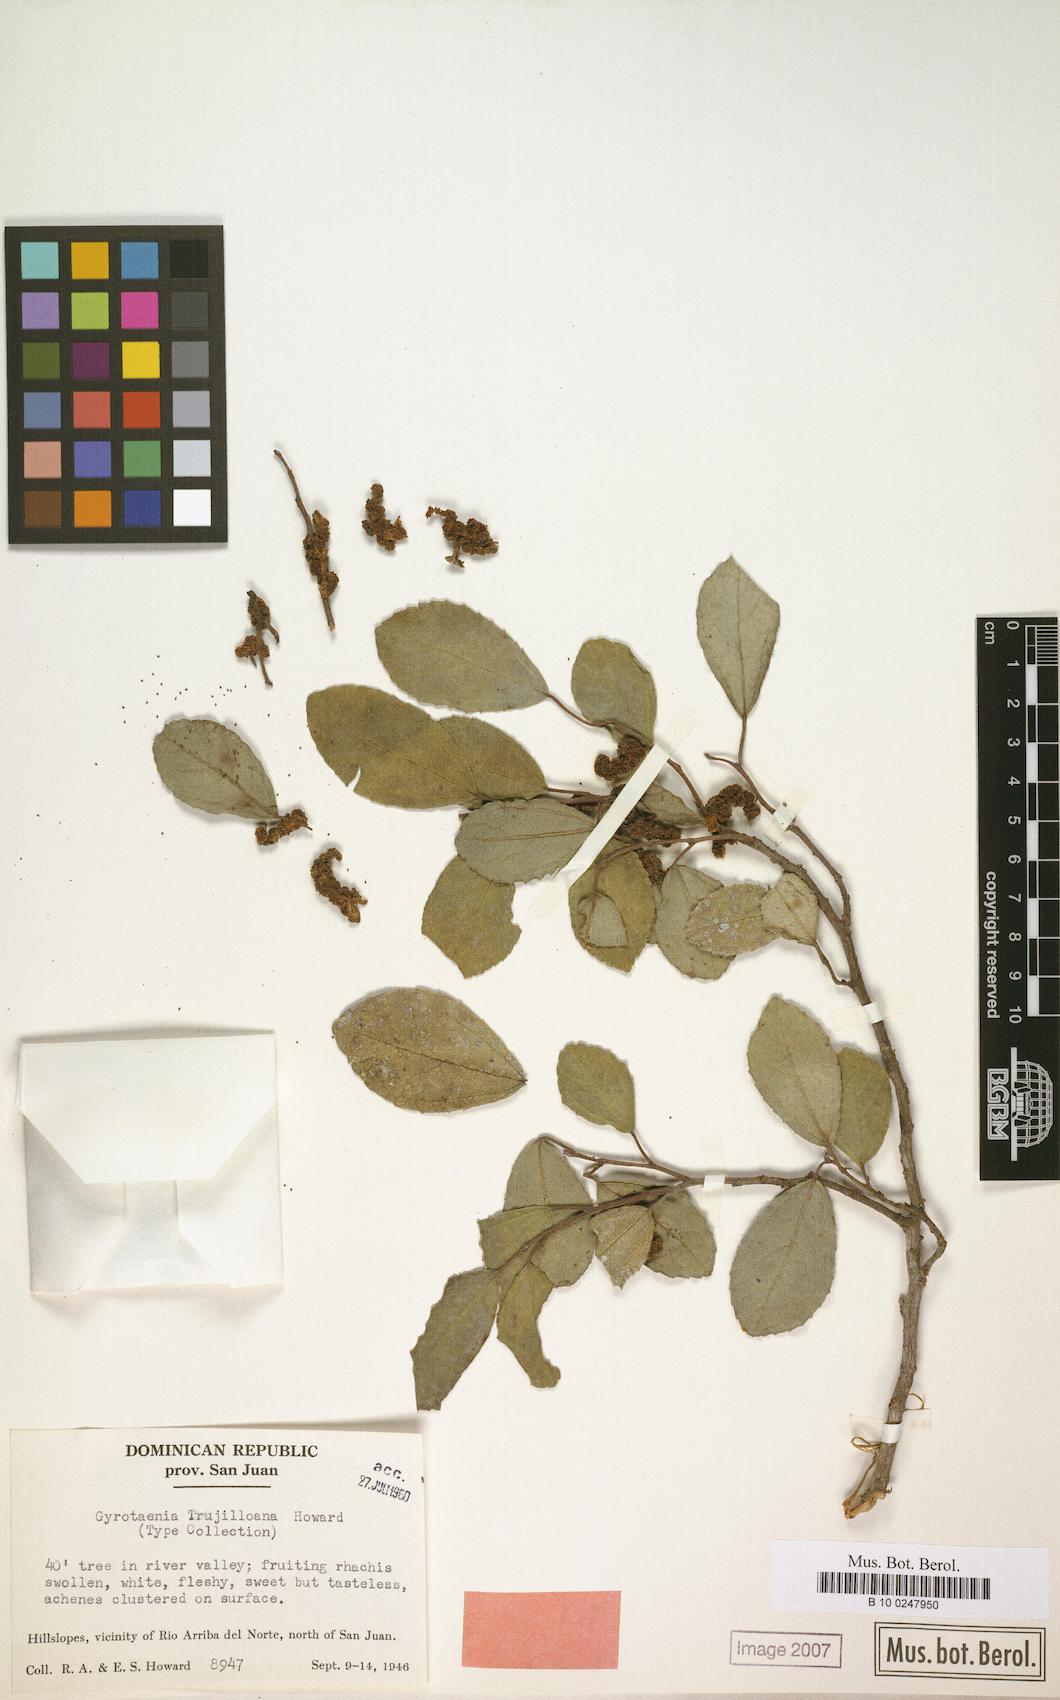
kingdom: Plantae
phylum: Tracheophyta
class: Magnoliopsida
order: Rosales
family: Urticaceae
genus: Gyrotaenia
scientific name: Gyrotaenia trujilloana
